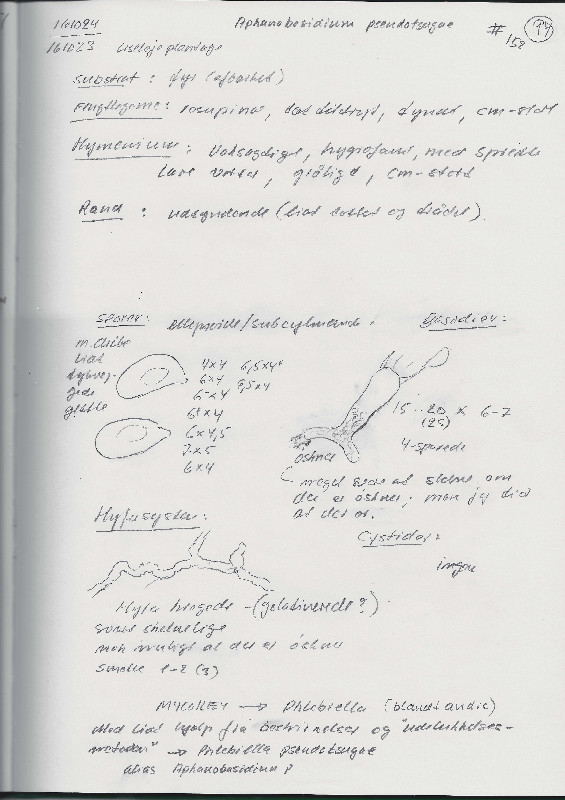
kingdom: Fungi
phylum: Basidiomycota
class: Agaricomycetes
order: Agaricales
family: Radulomycetaceae
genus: Aphanobasidium
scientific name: Aphanobasidium pseudotsugae
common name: tynd naftalinskind
